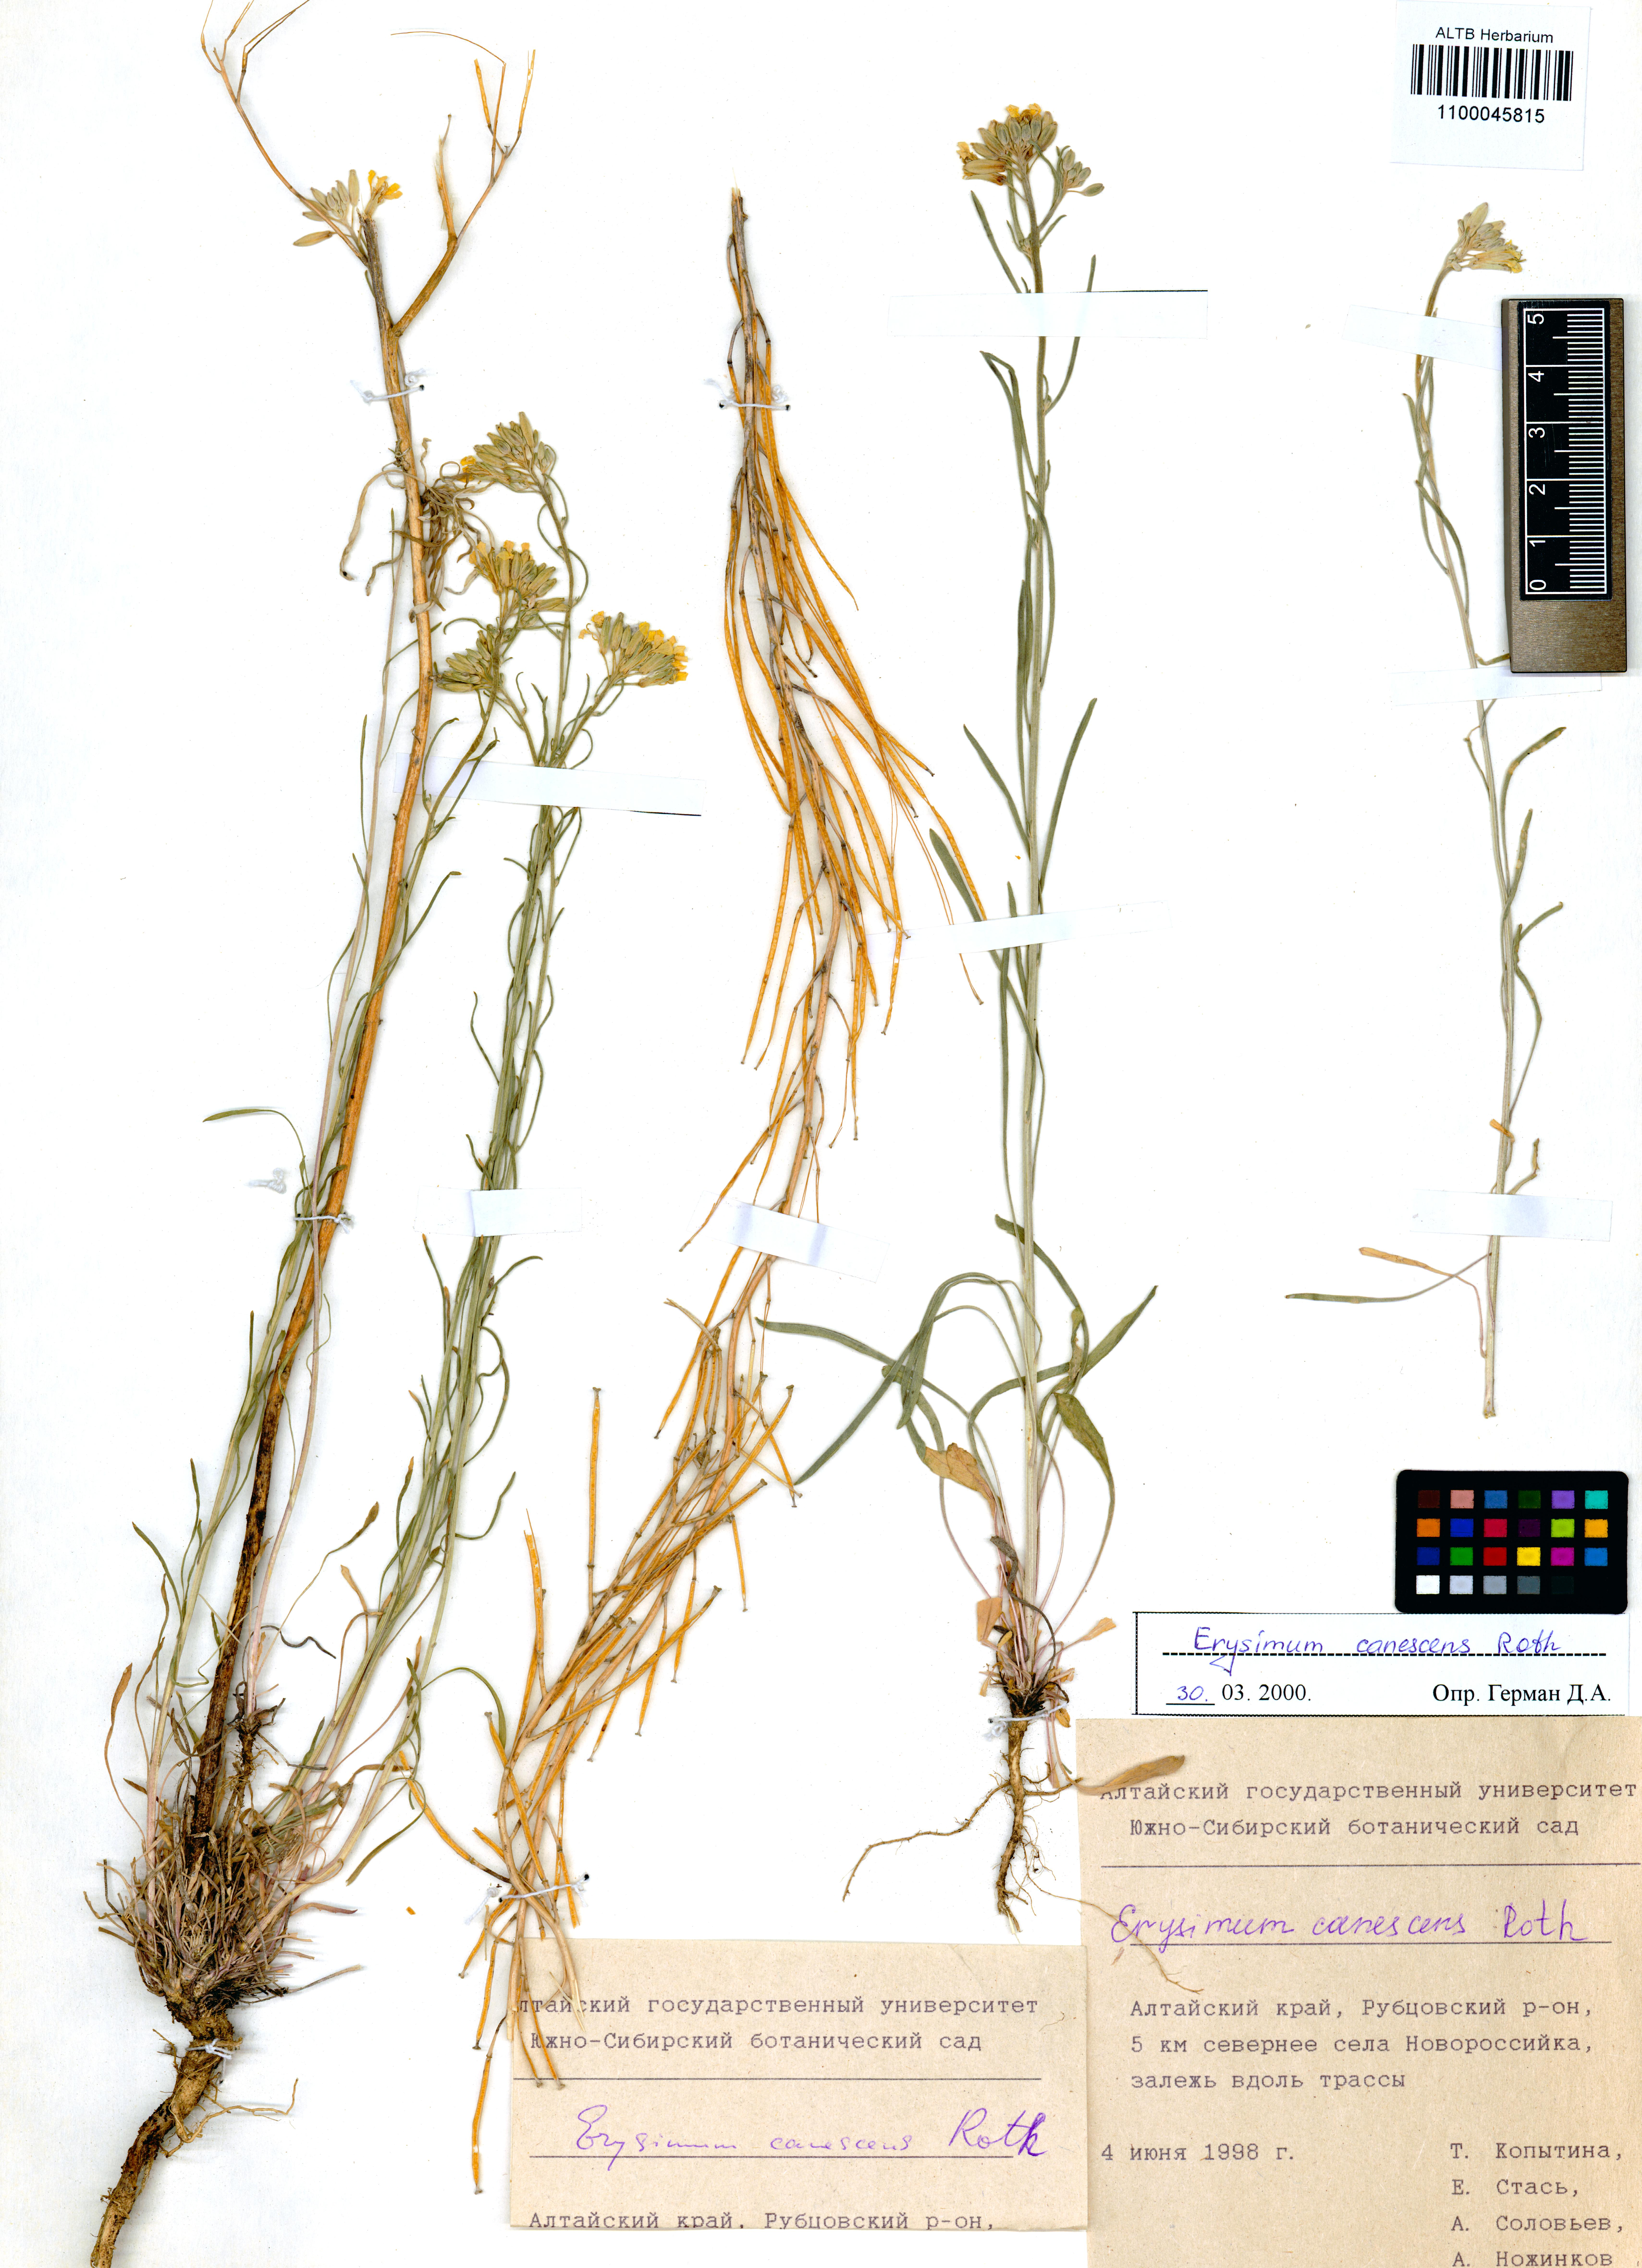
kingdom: Plantae
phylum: Tracheophyta
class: Magnoliopsida
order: Brassicales
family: Brassicaceae
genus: Erysimum
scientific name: Erysimum canescens
